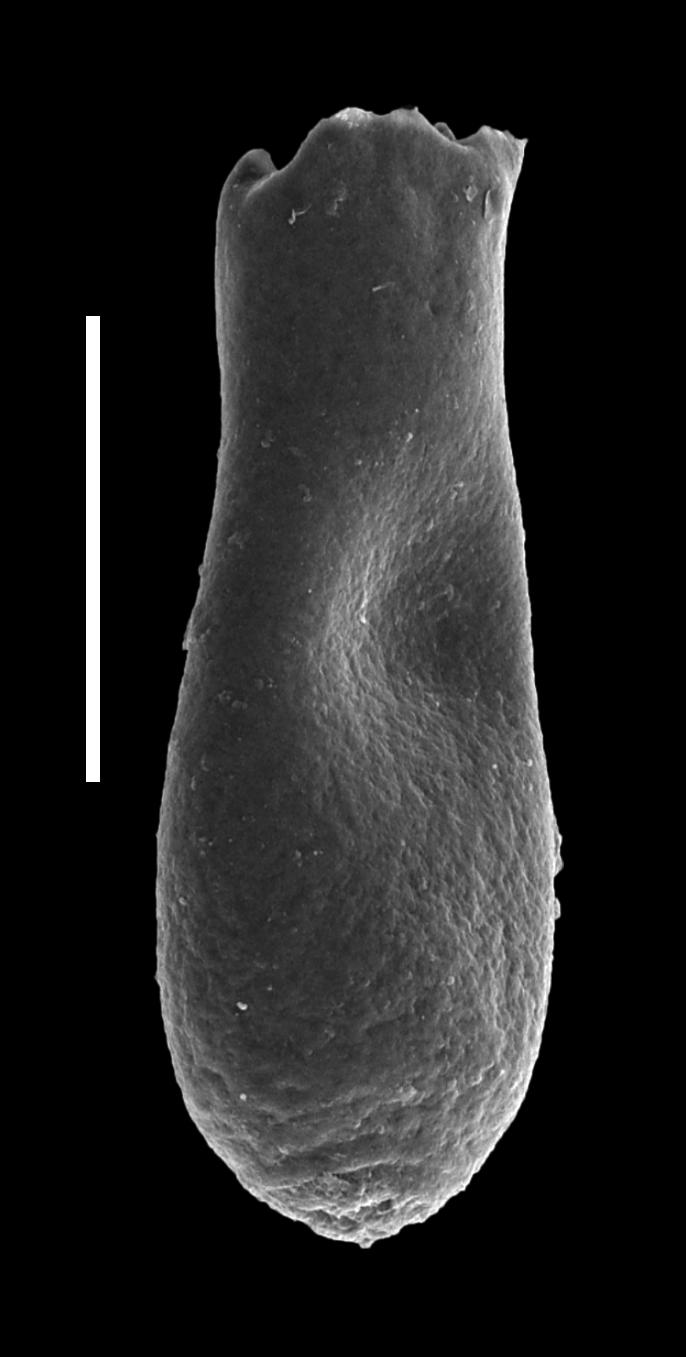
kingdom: Animalia
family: Lagenochitinidae
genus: Lagenochitina
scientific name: Lagenochitina
